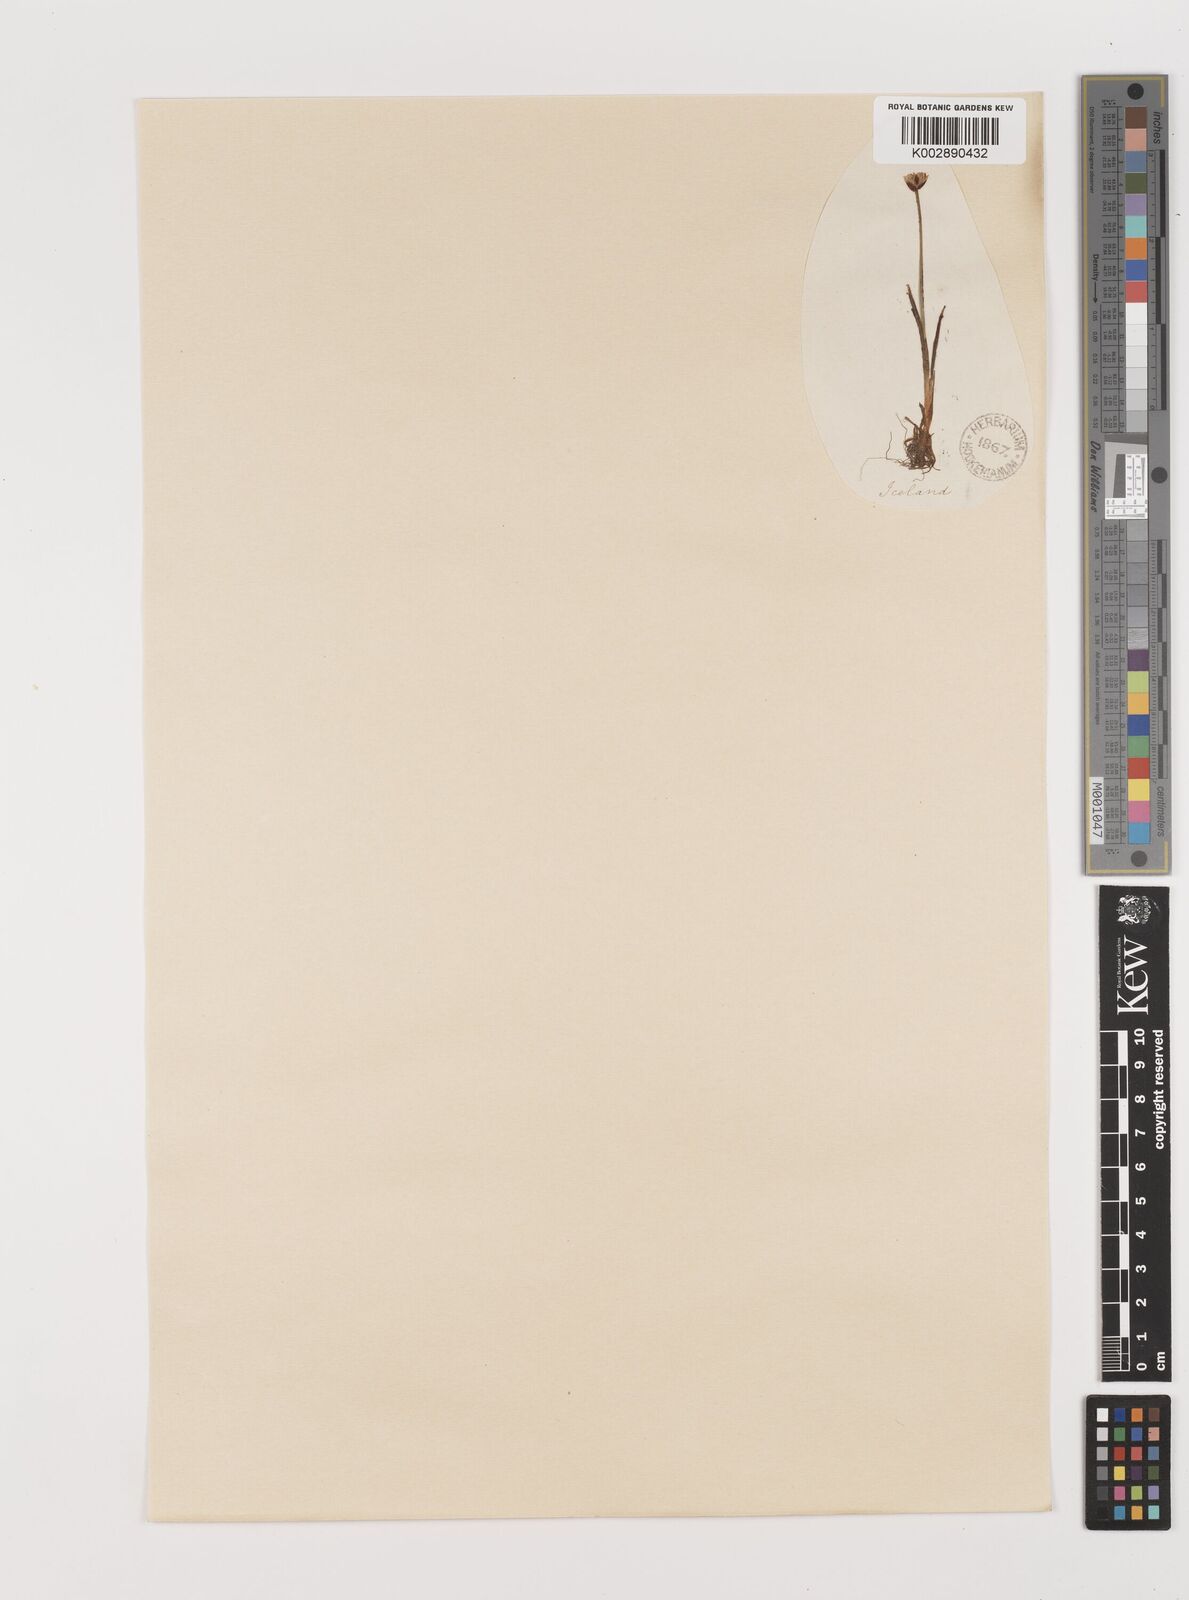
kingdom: Plantae
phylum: Tracheophyta
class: Liliopsida
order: Poales
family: Juncaceae
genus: Juncus
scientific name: Juncus triglumis
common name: Three-flowered rush
